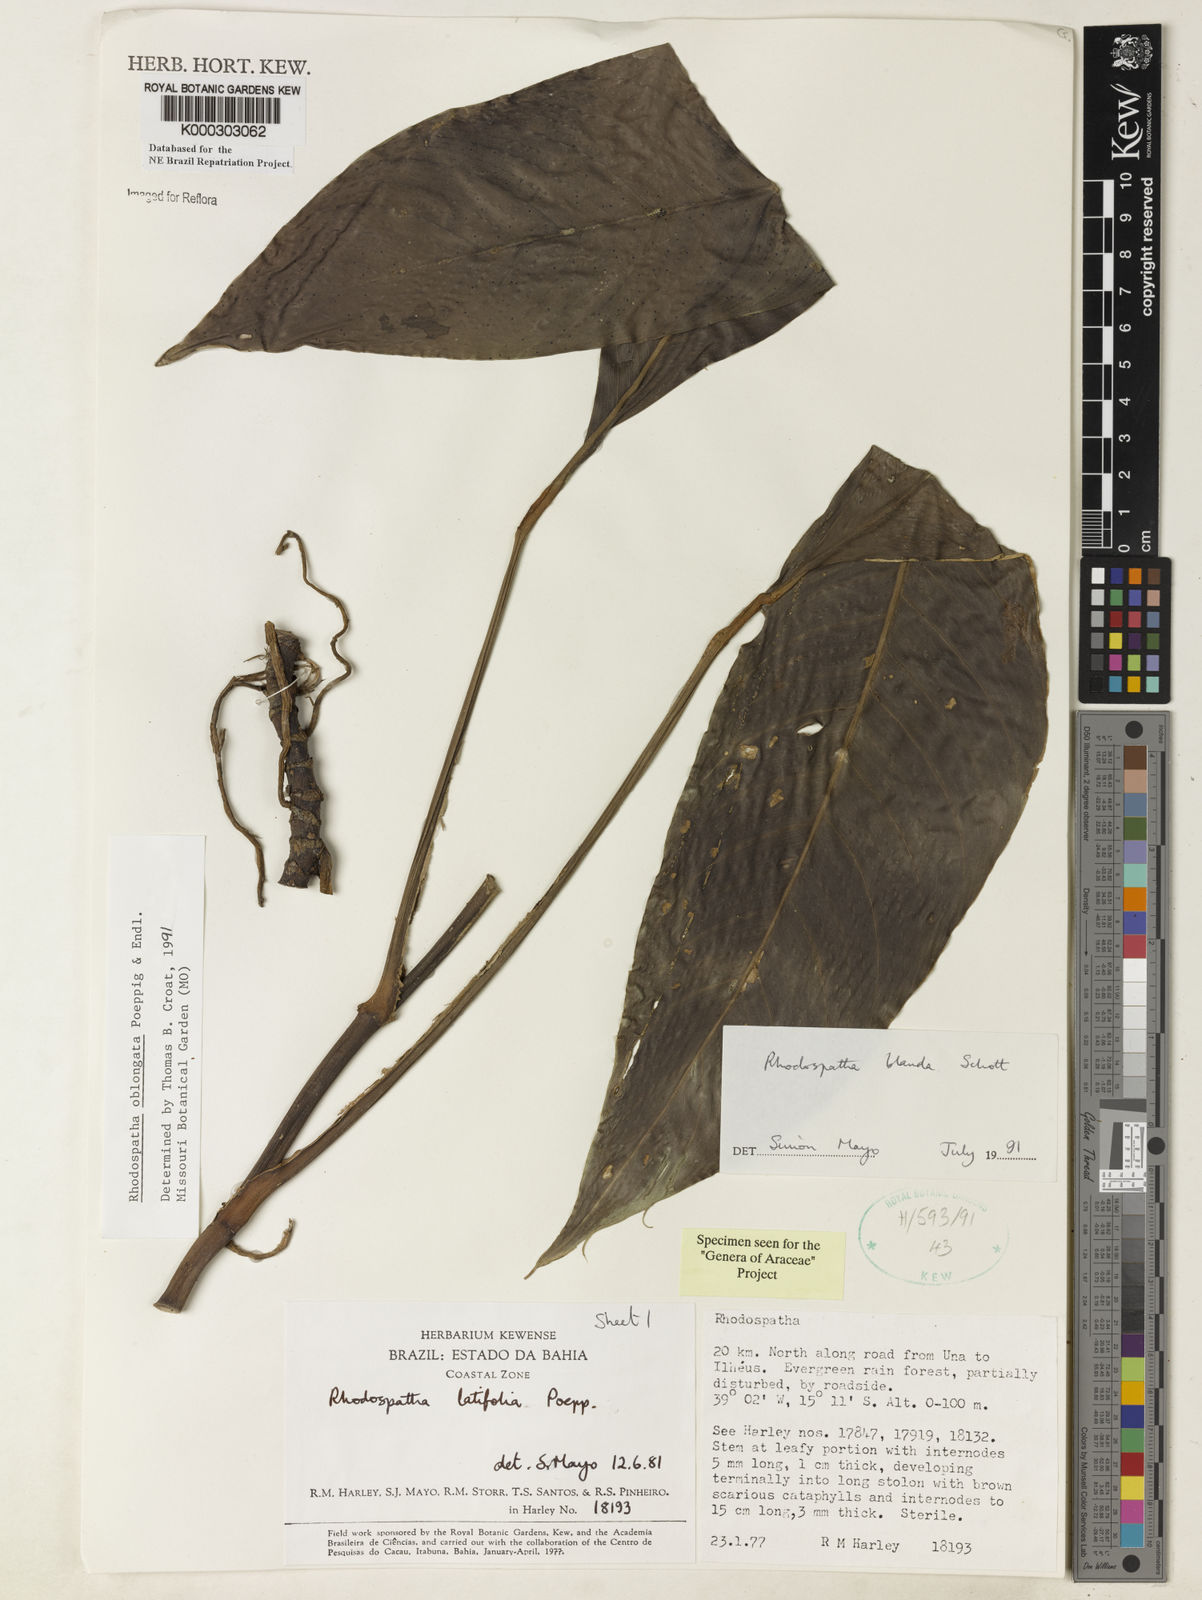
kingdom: Plantae
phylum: Tracheophyta
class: Liliopsida
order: Alismatales
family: Araceae
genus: Rhodospatha
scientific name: Rhodospatha oblongata
